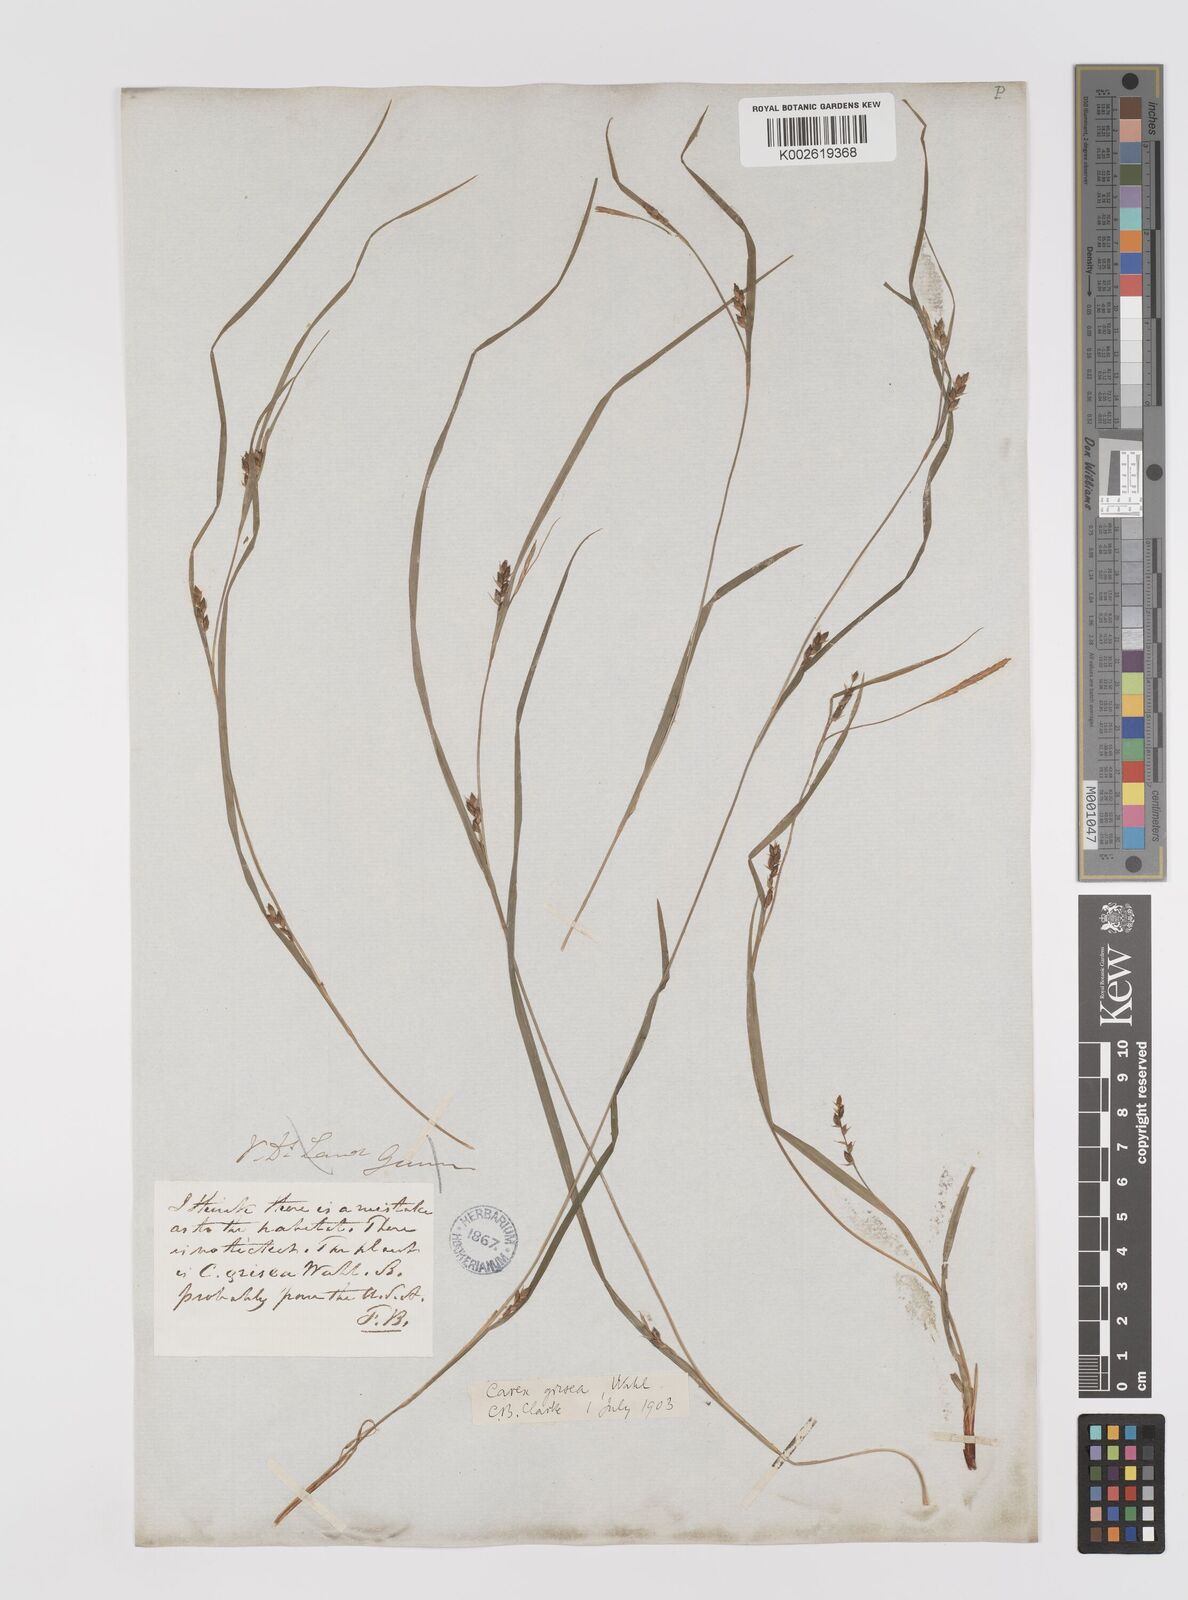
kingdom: Plantae
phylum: Tracheophyta
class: Liliopsida
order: Poales
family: Cyperaceae
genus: Carex
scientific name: Carex grisea
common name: Eastern narrow-leaved sedge
